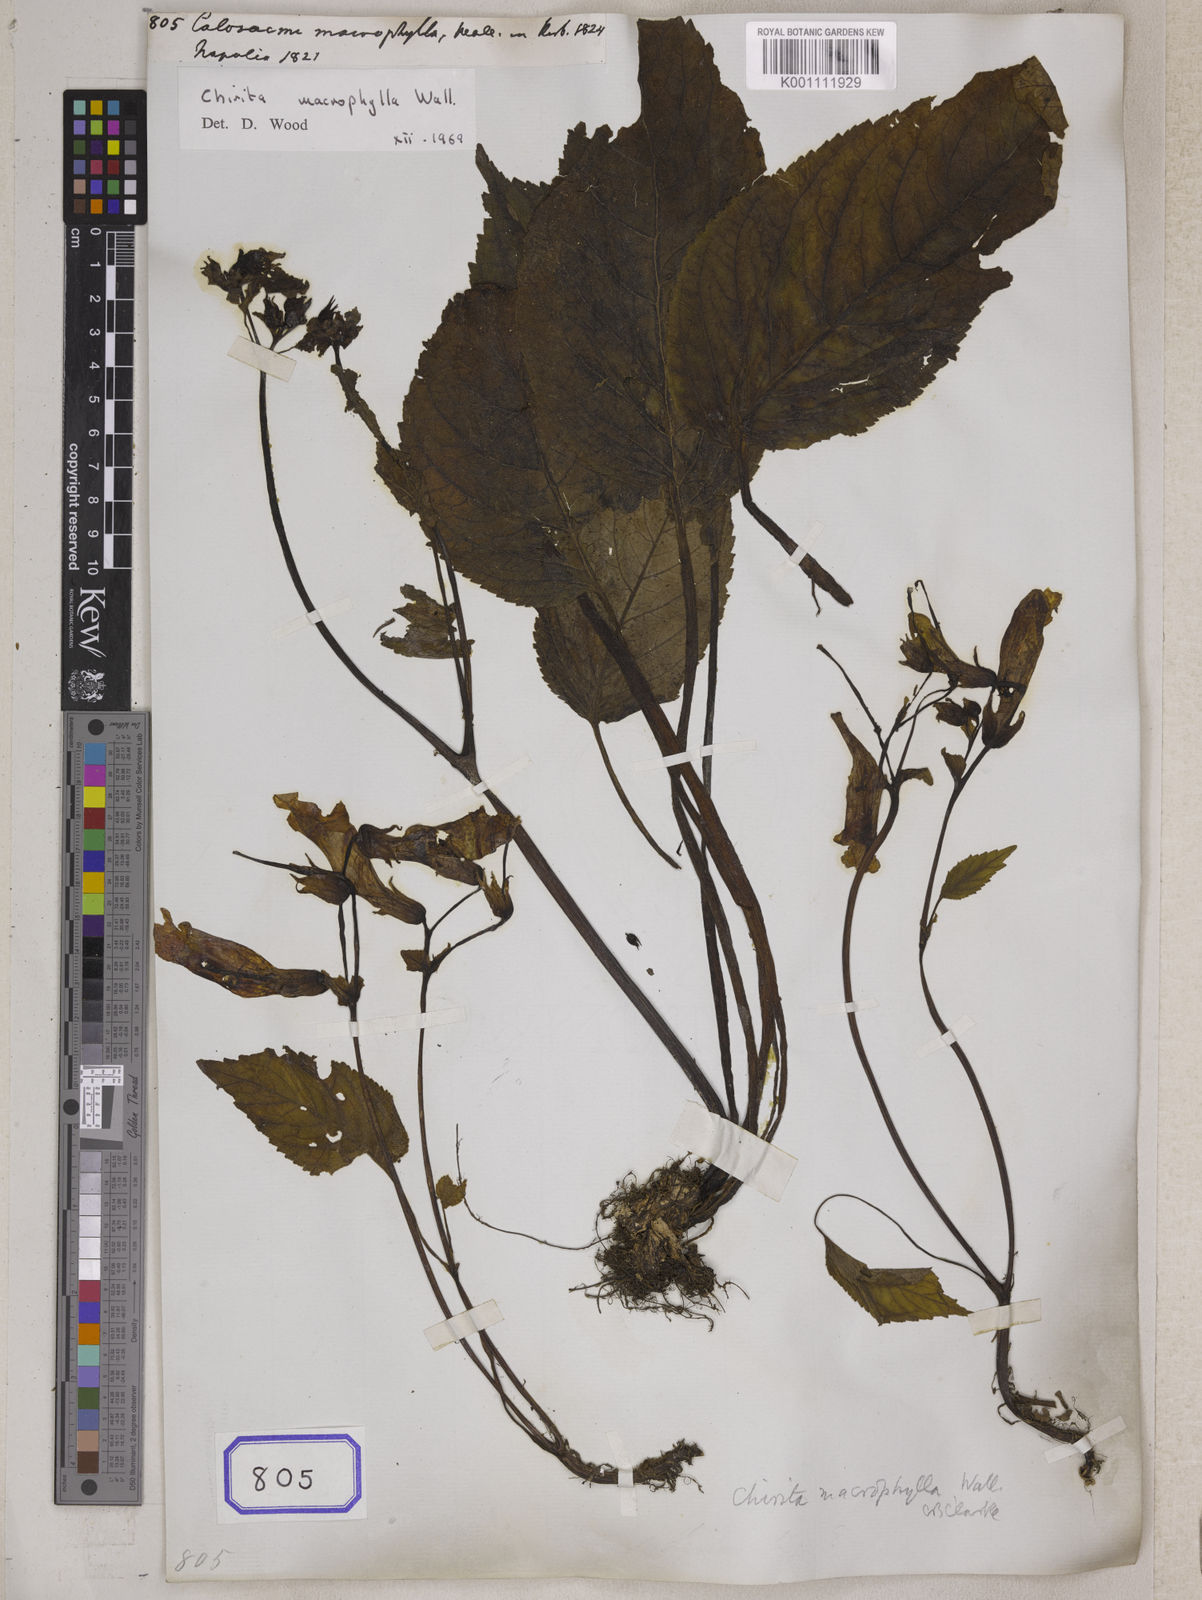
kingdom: Plantae
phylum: Tracheophyta
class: Magnoliopsida
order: Lamiales
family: Gesneriaceae
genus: Henckelia
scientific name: Henckelia grandifolia
